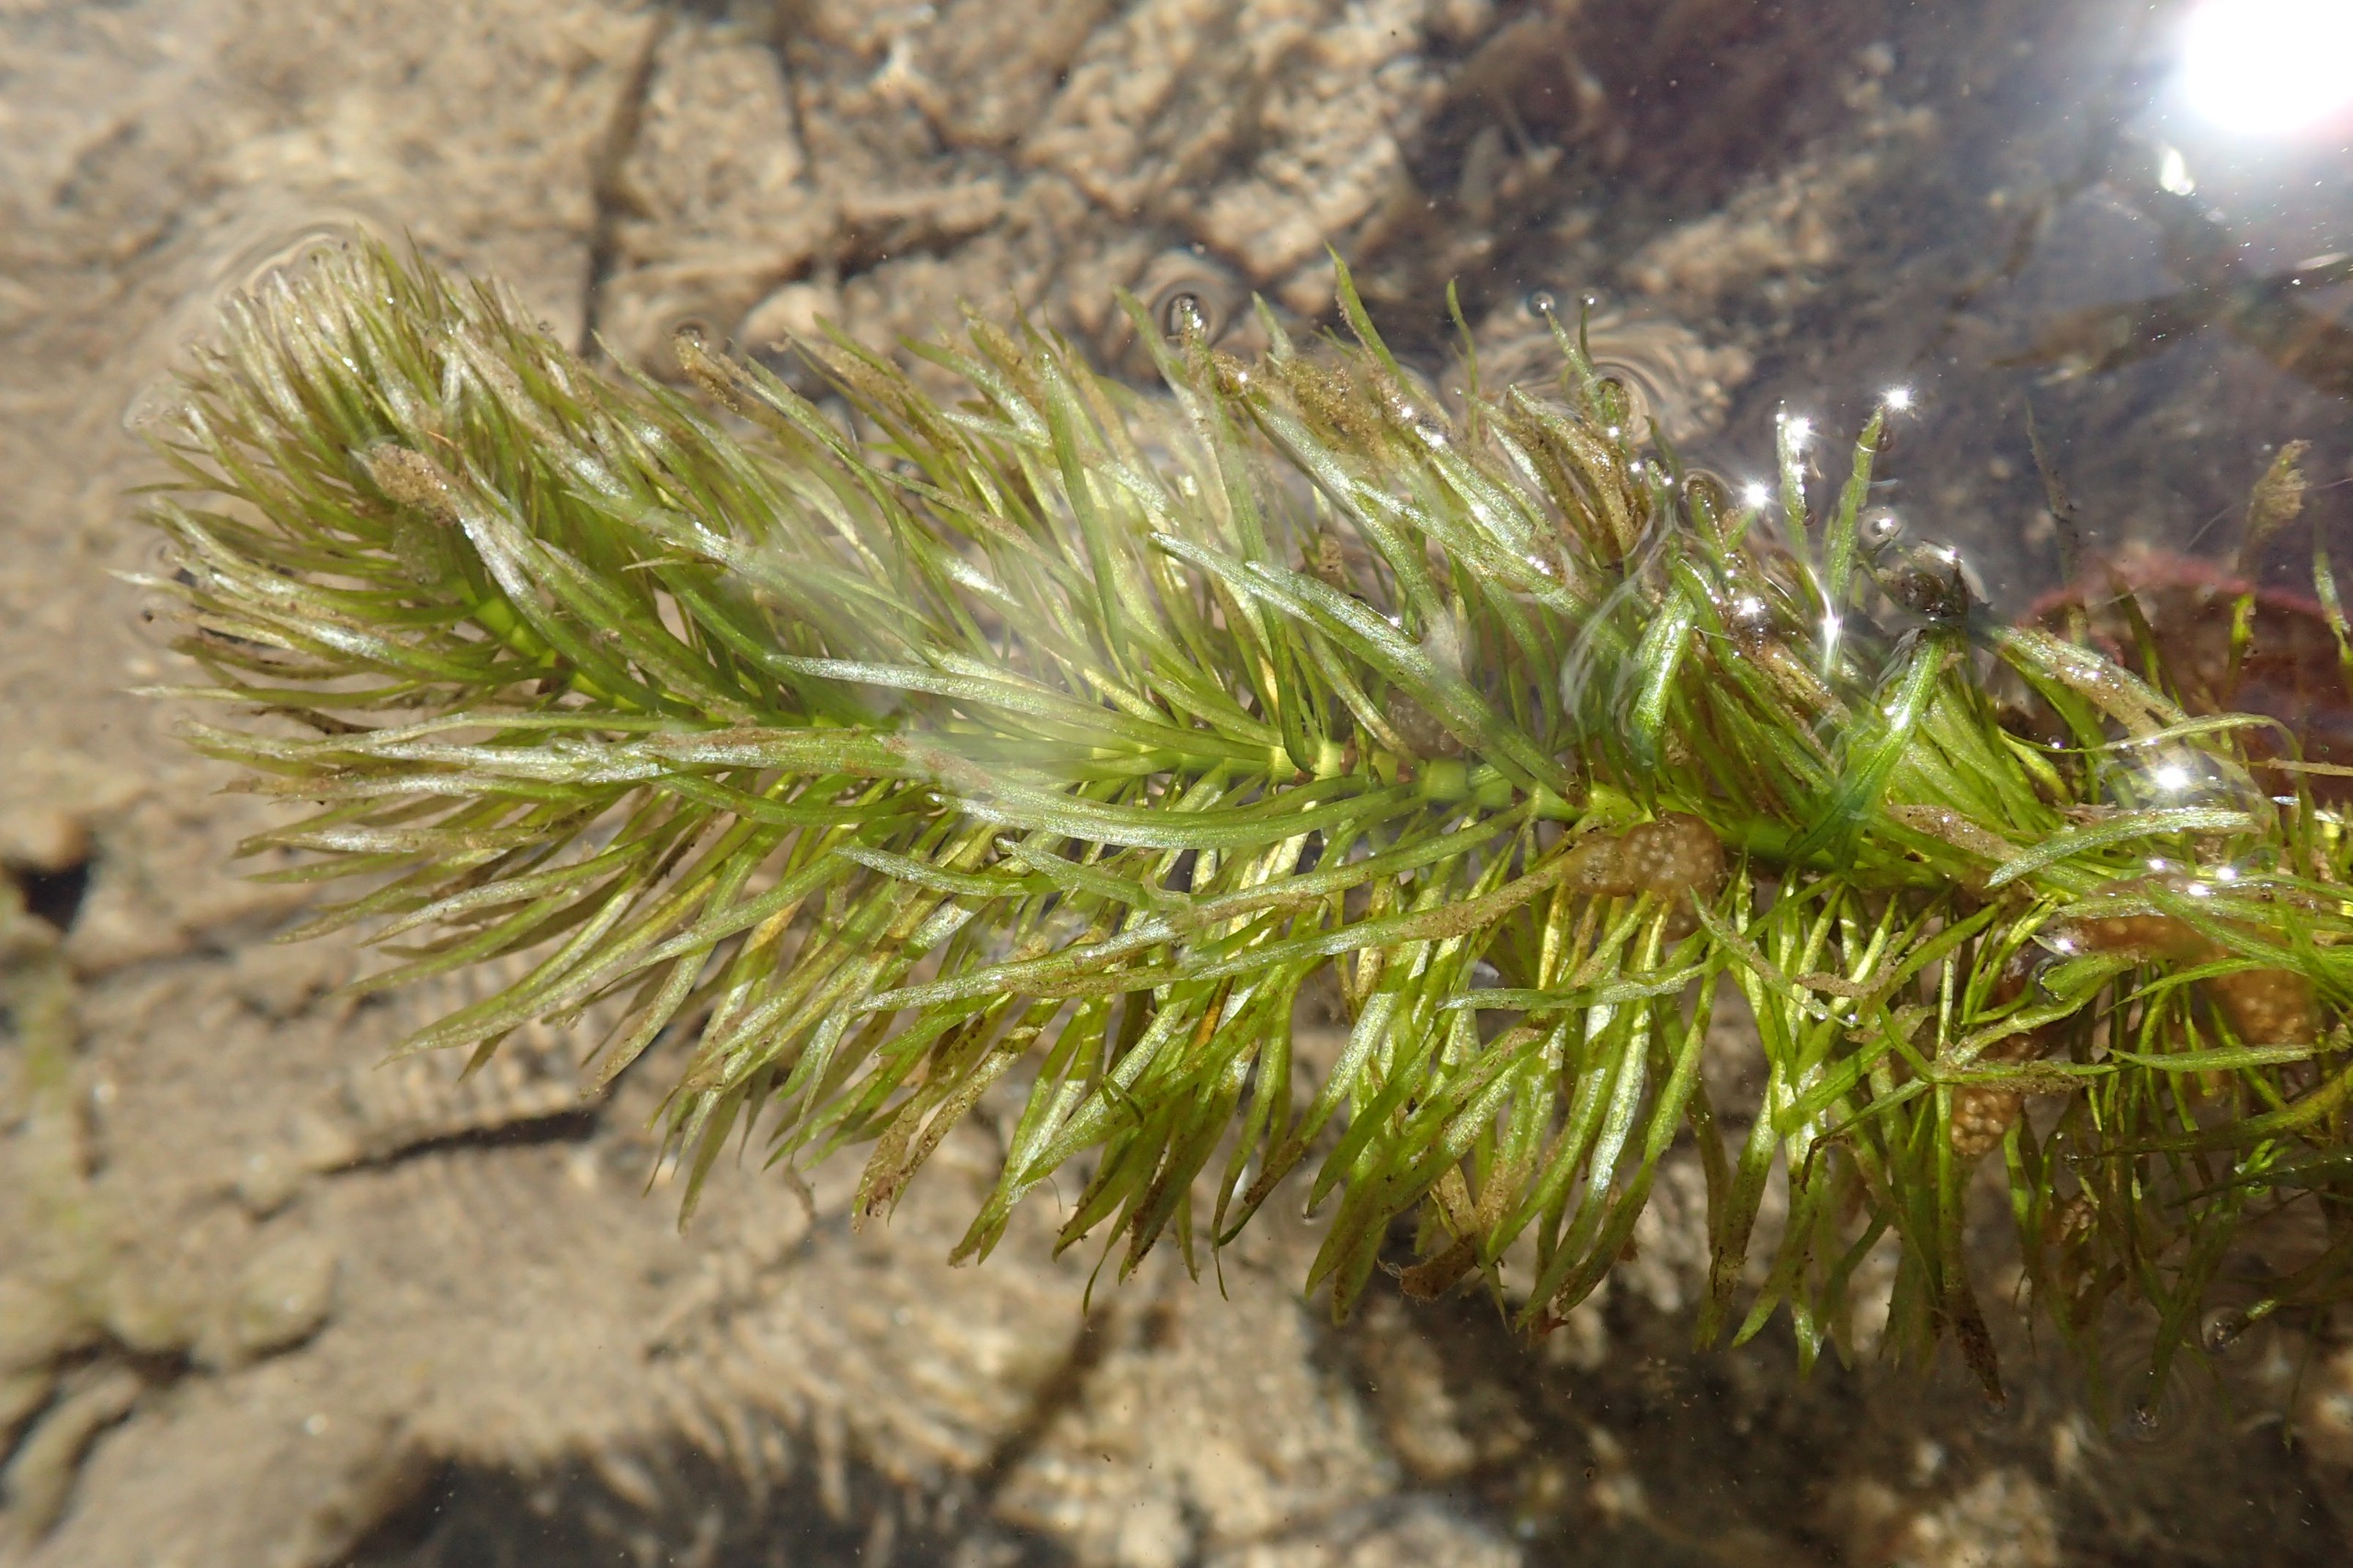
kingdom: Plantae
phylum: Tracheophyta
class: Magnoliopsida
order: Lamiales
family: Plantaginaceae
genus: Hippuris
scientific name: Hippuris vulgaris
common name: Vandspir
